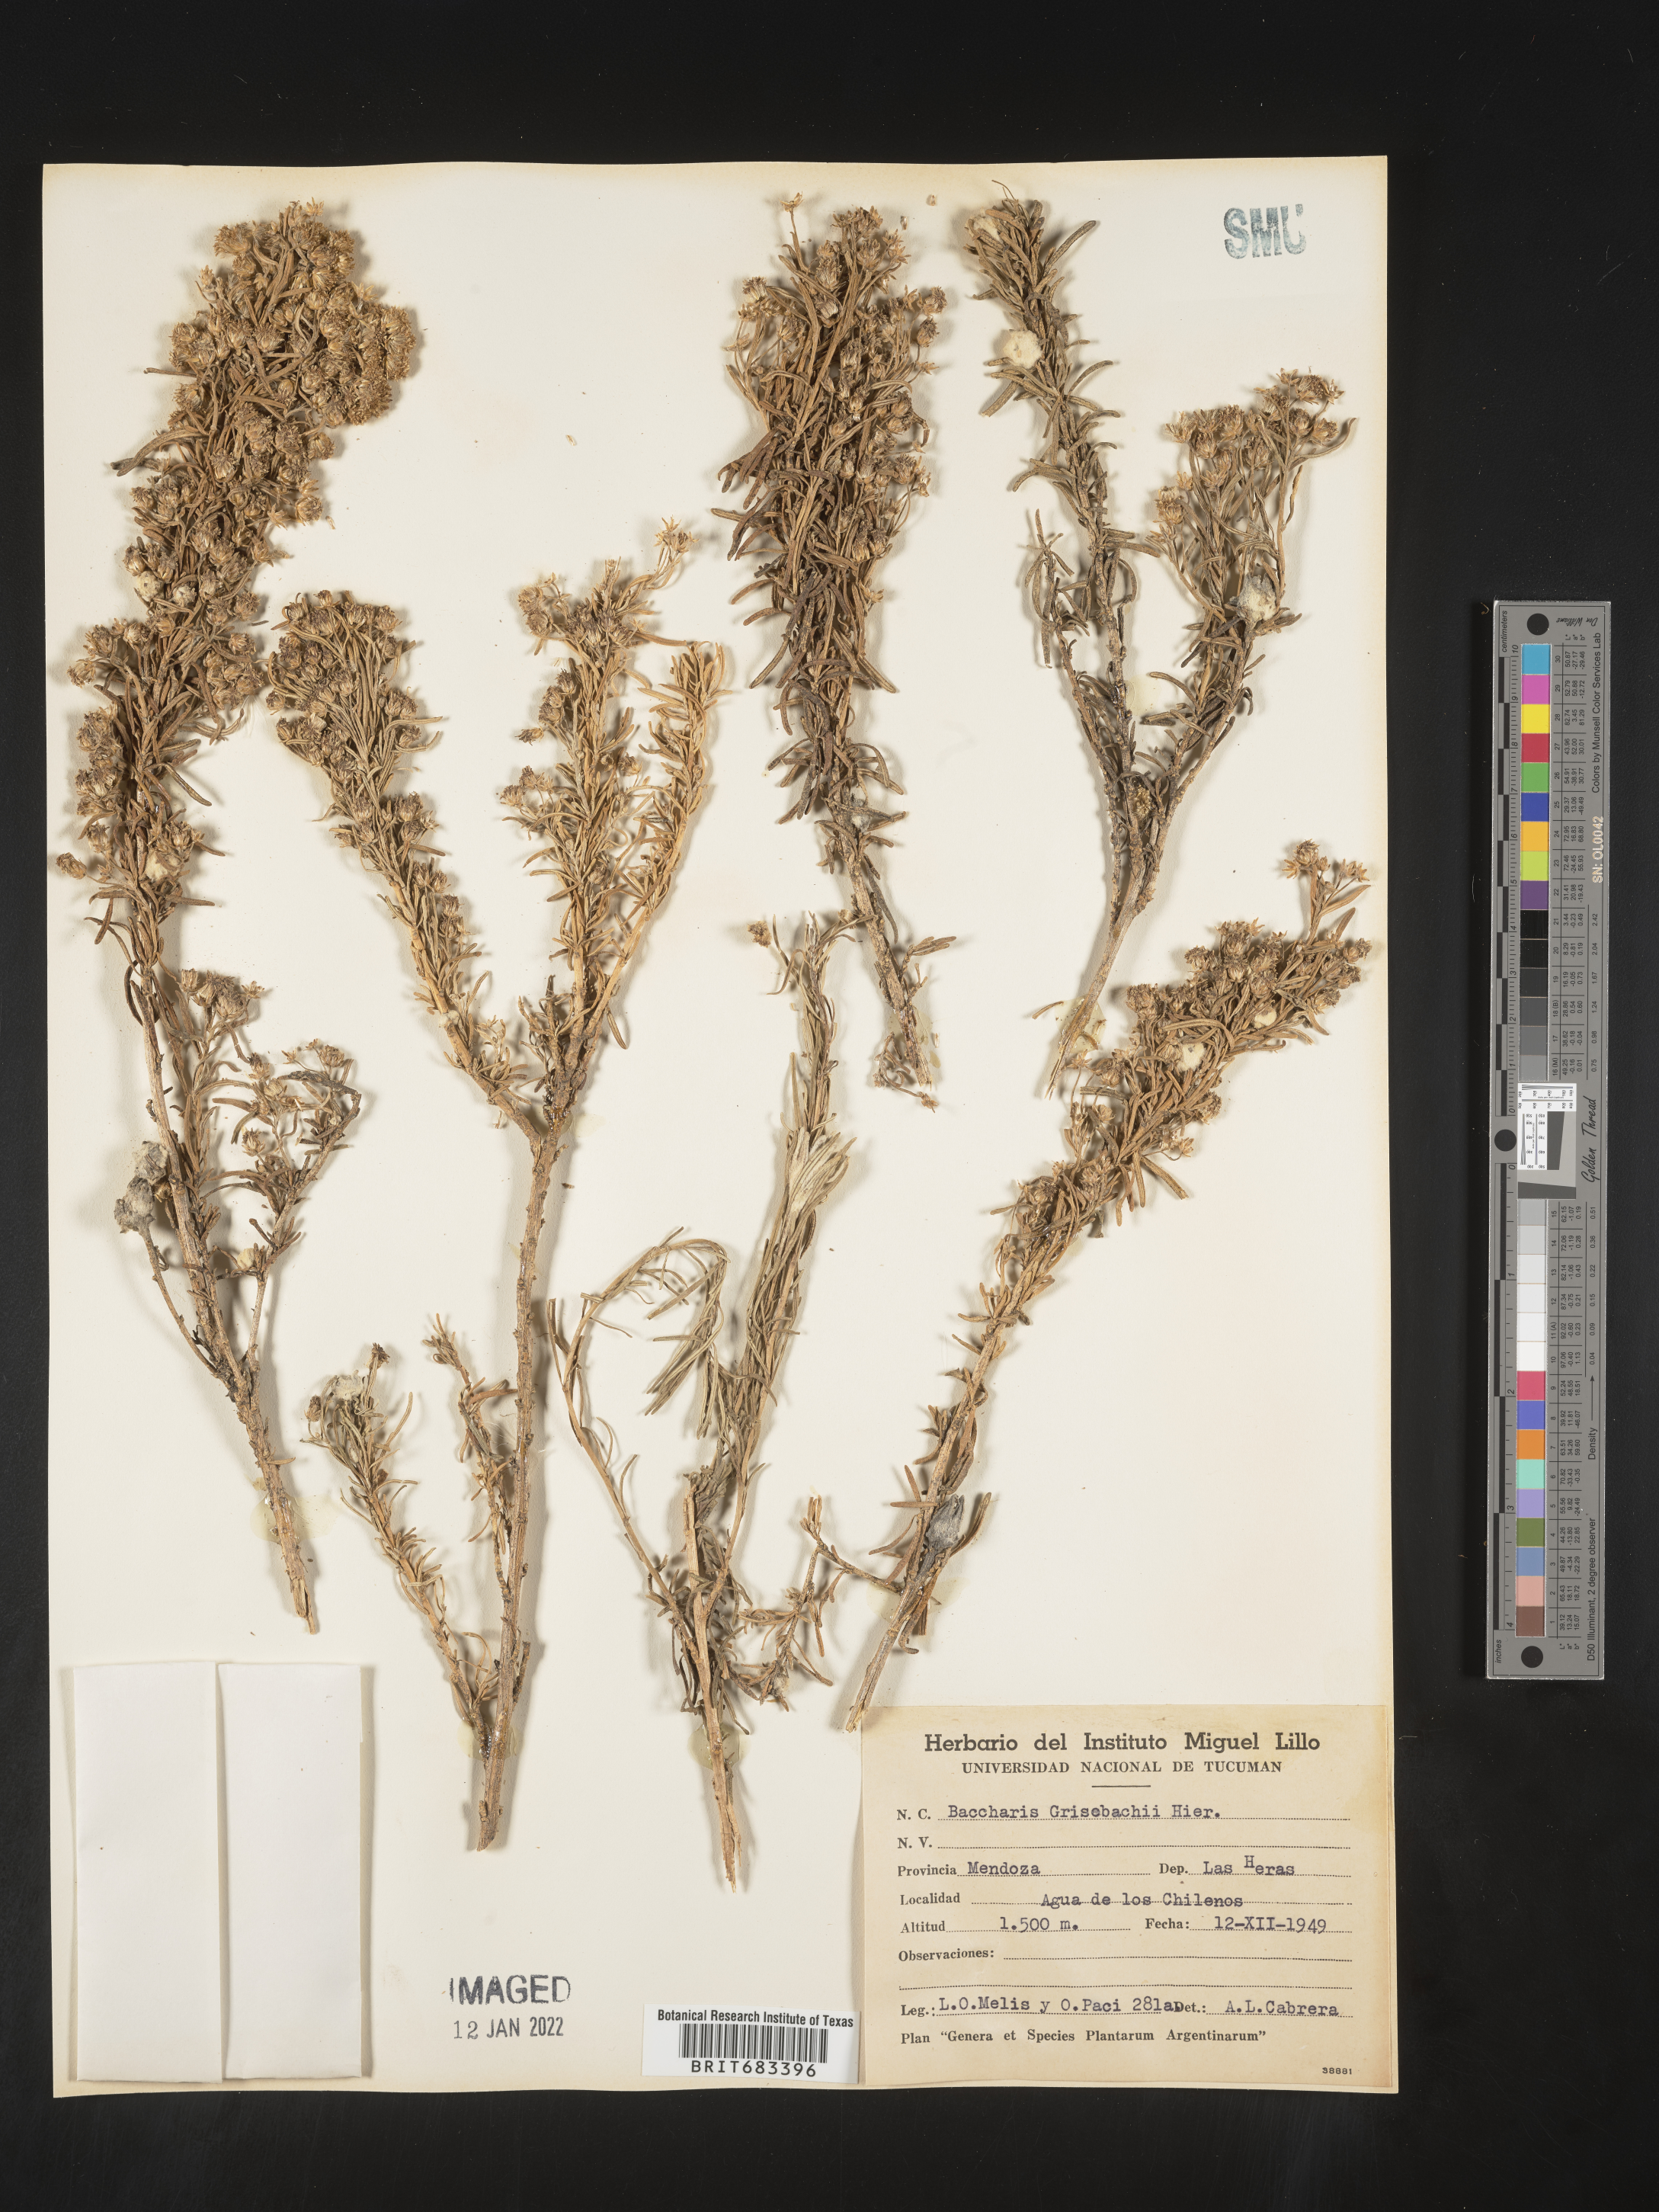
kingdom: Plantae
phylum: Tracheophyta
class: Magnoliopsida
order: Asterales
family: Asteraceae
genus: Baccharis
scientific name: Baccharis
